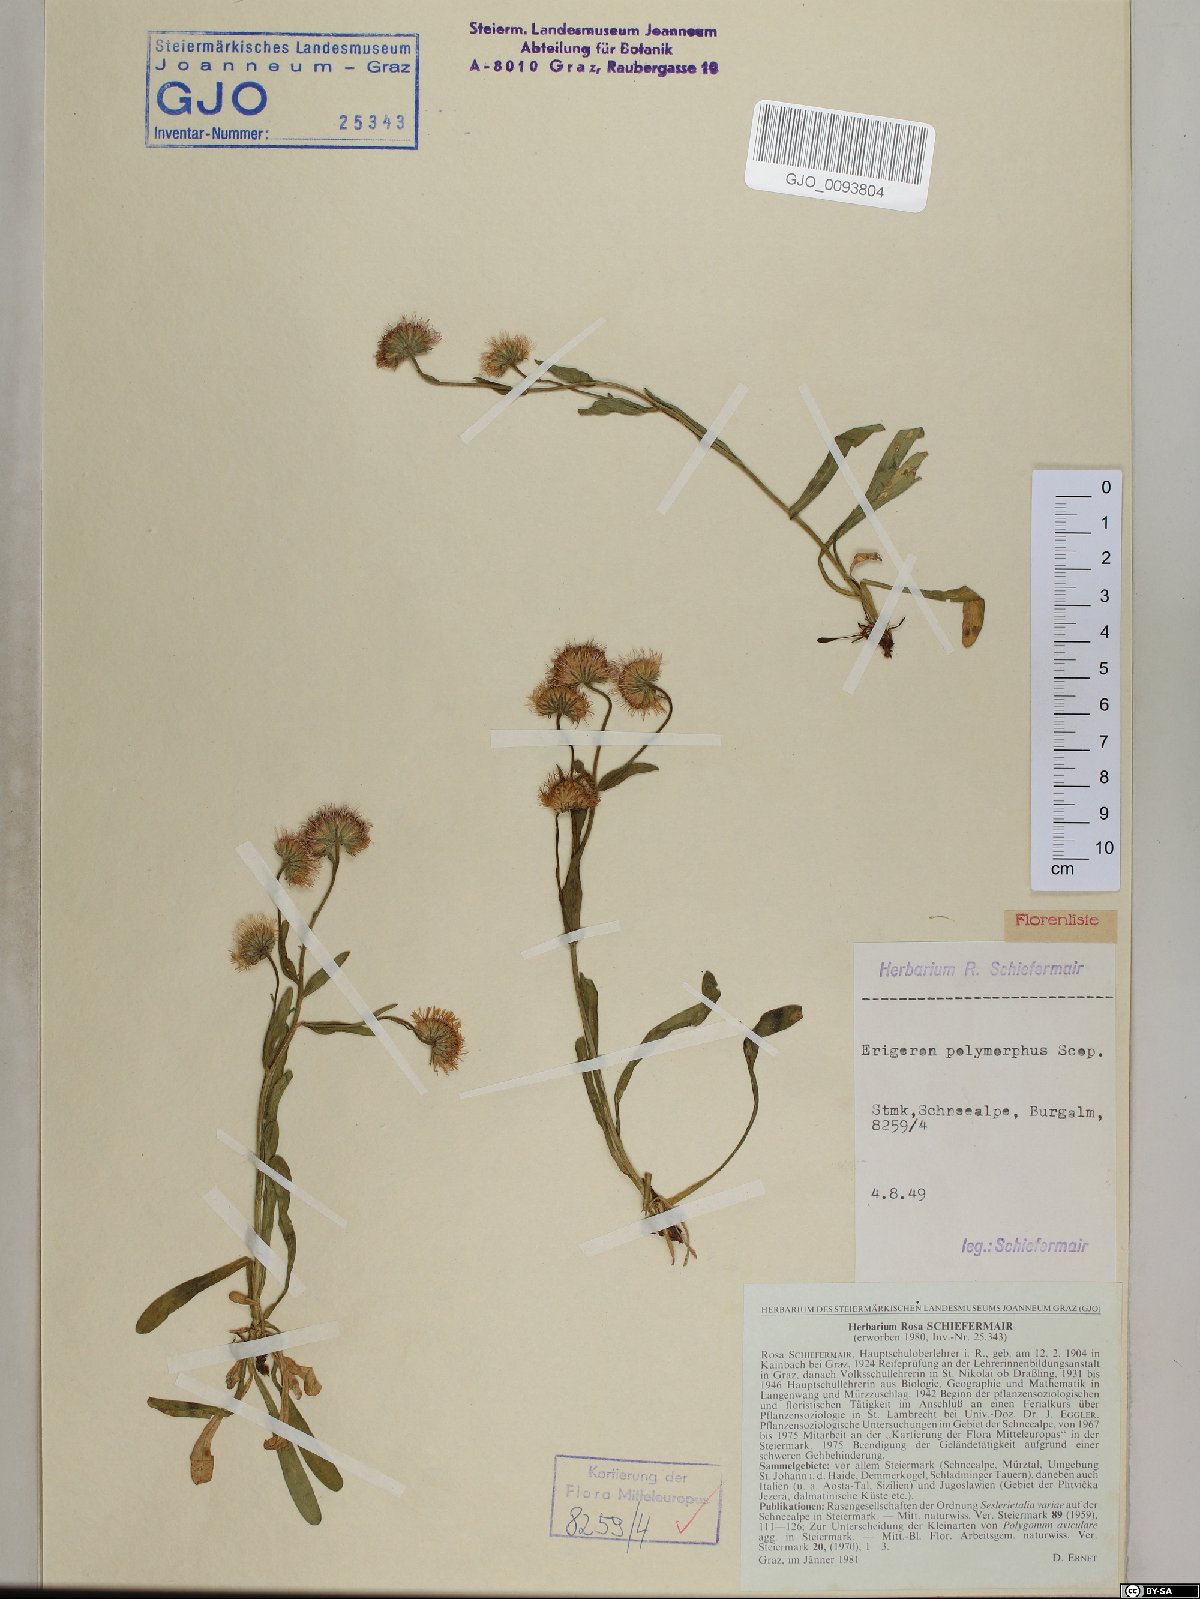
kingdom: Plantae
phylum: Tracheophyta
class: Magnoliopsida
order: Asterales
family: Asteraceae
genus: Erigeron
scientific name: Erigeron alpinus
